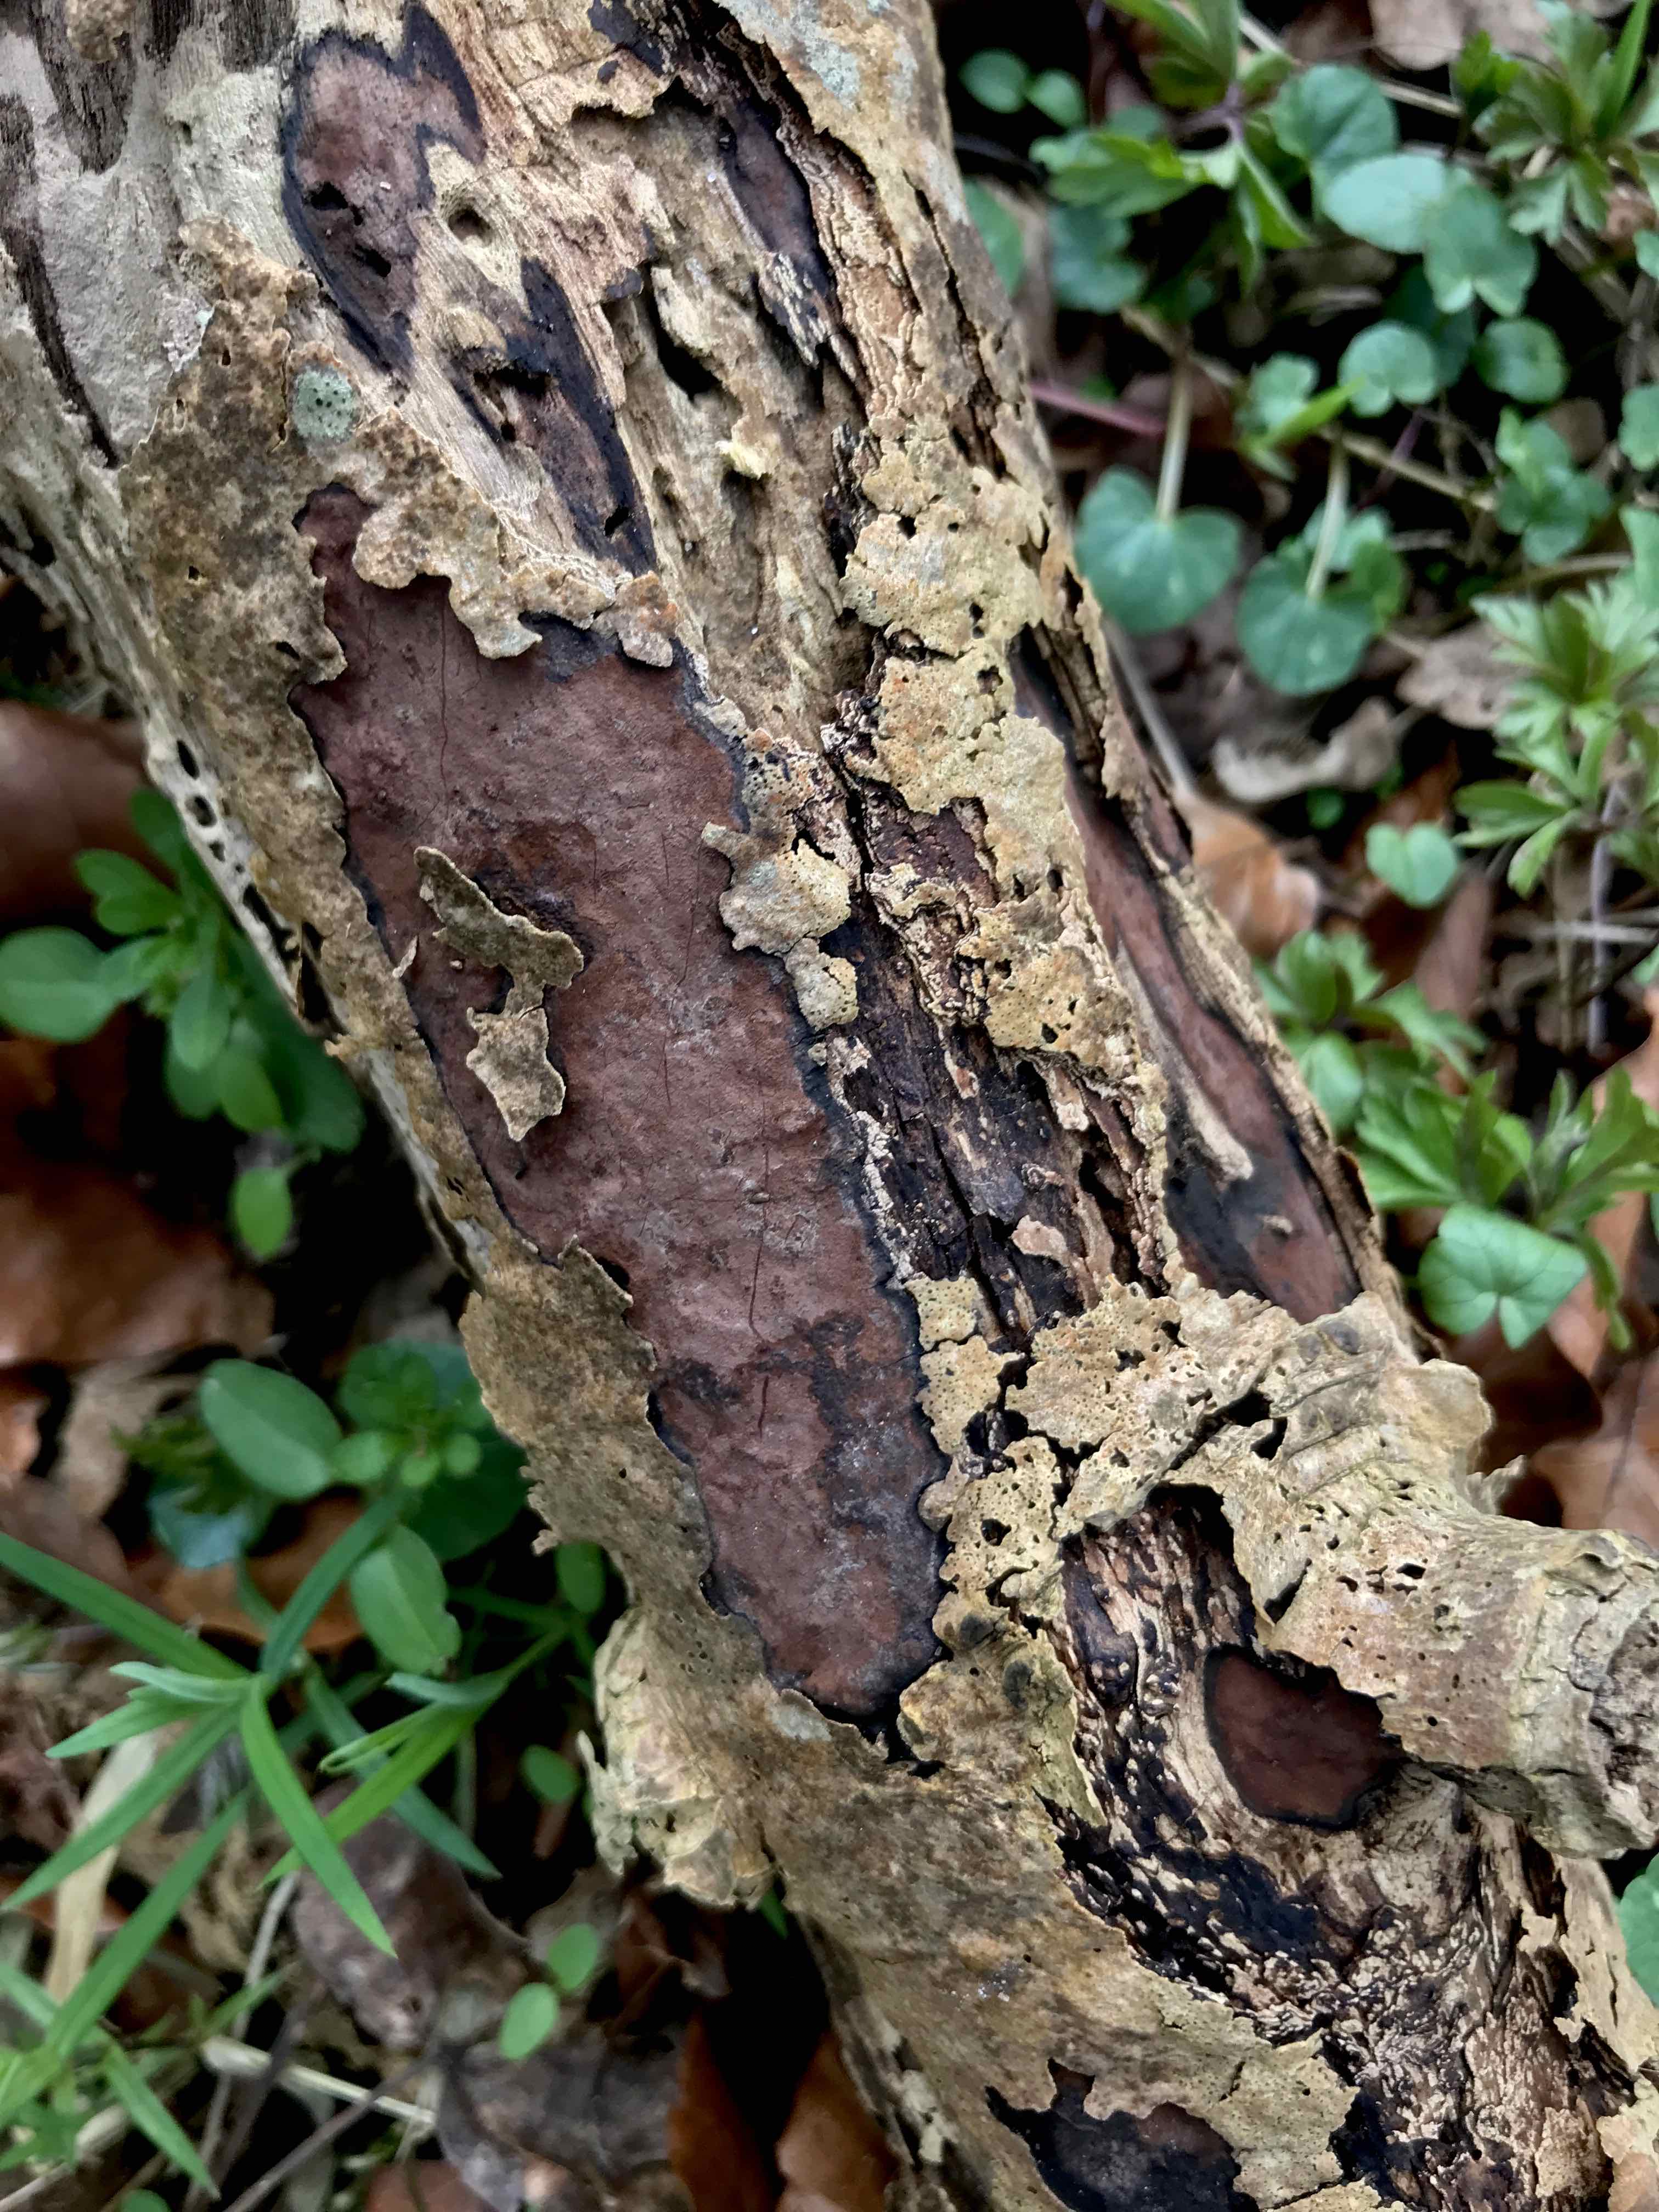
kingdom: Fungi
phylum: Ascomycota
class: Sordariomycetes
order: Xylariales
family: Hypoxylaceae
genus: Hypoxylon
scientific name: Hypoxylon petriniae
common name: nedsænket kulbær
